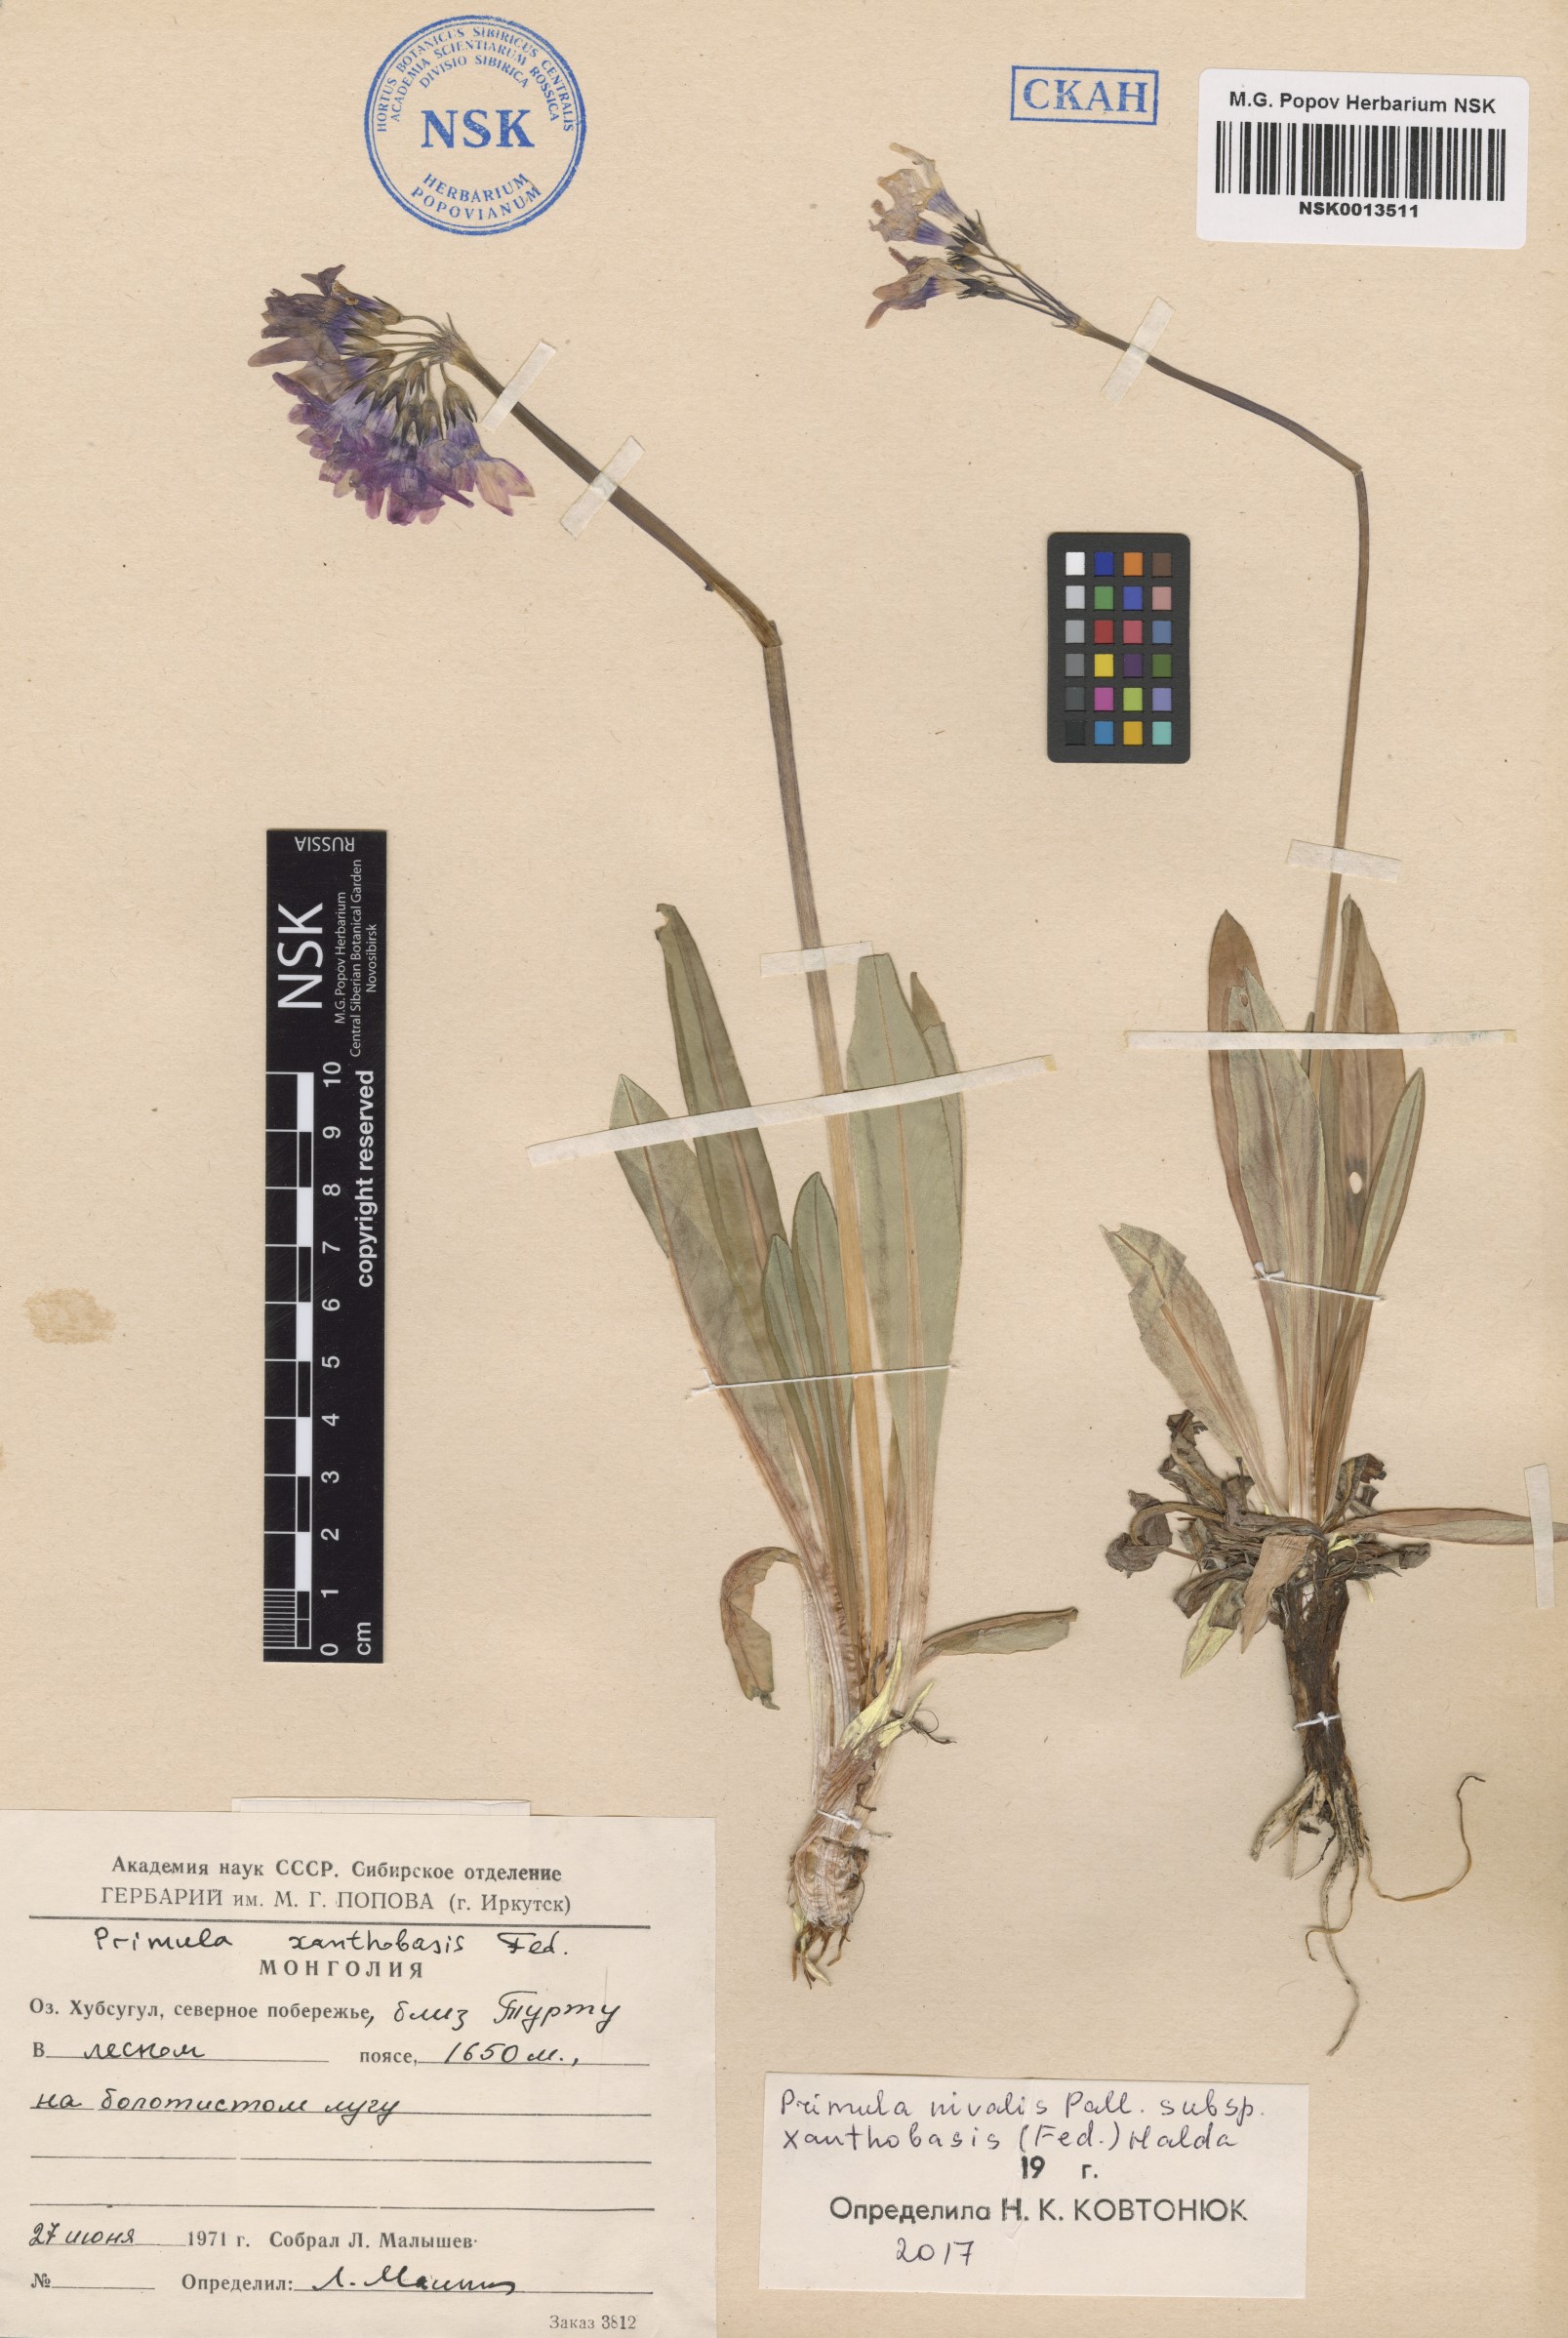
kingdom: Plantae
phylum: Tracheophyta
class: Magnoliopsida
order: Ericales
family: Primulaceae
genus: Primula
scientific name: Primula nivalis
